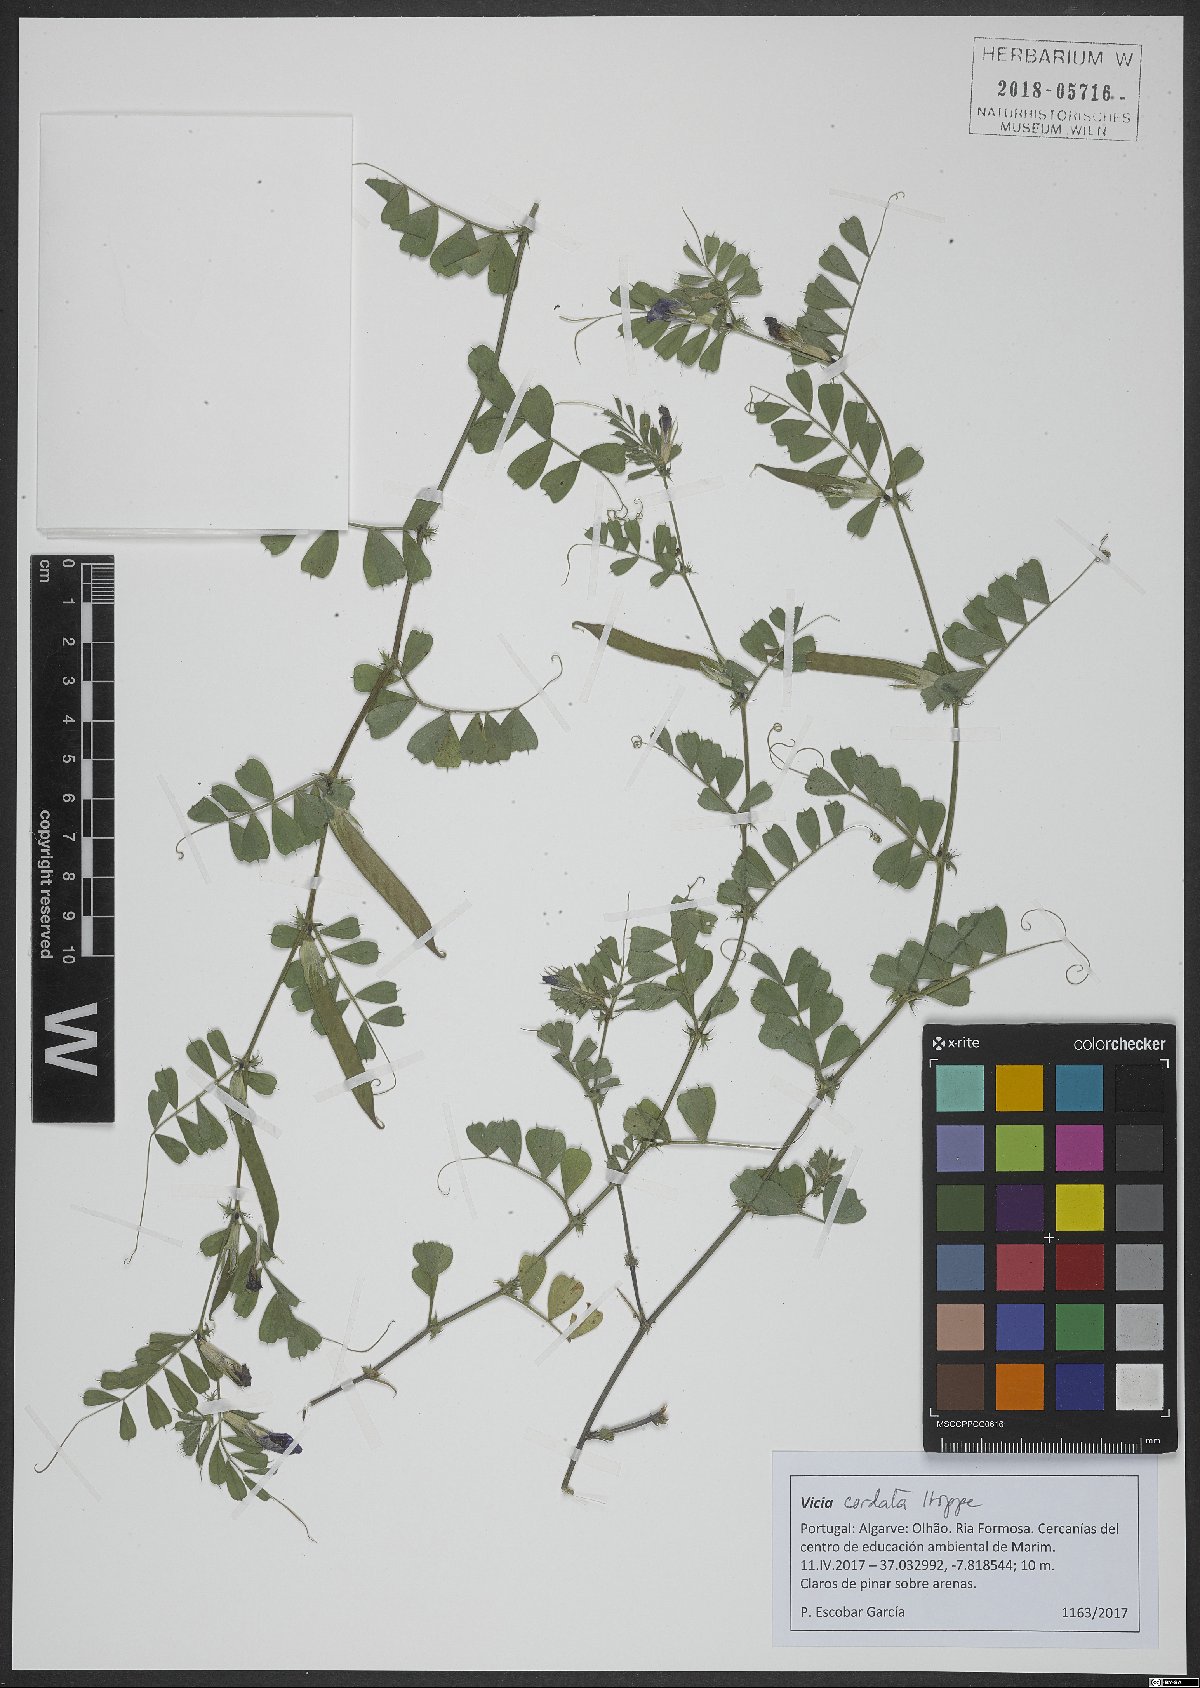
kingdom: Plantae
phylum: Tracheophyta
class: Magnoliopsida
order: Fabales
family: Fabaceae
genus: Vicia
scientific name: Vicia sativa
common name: Garden vetch
